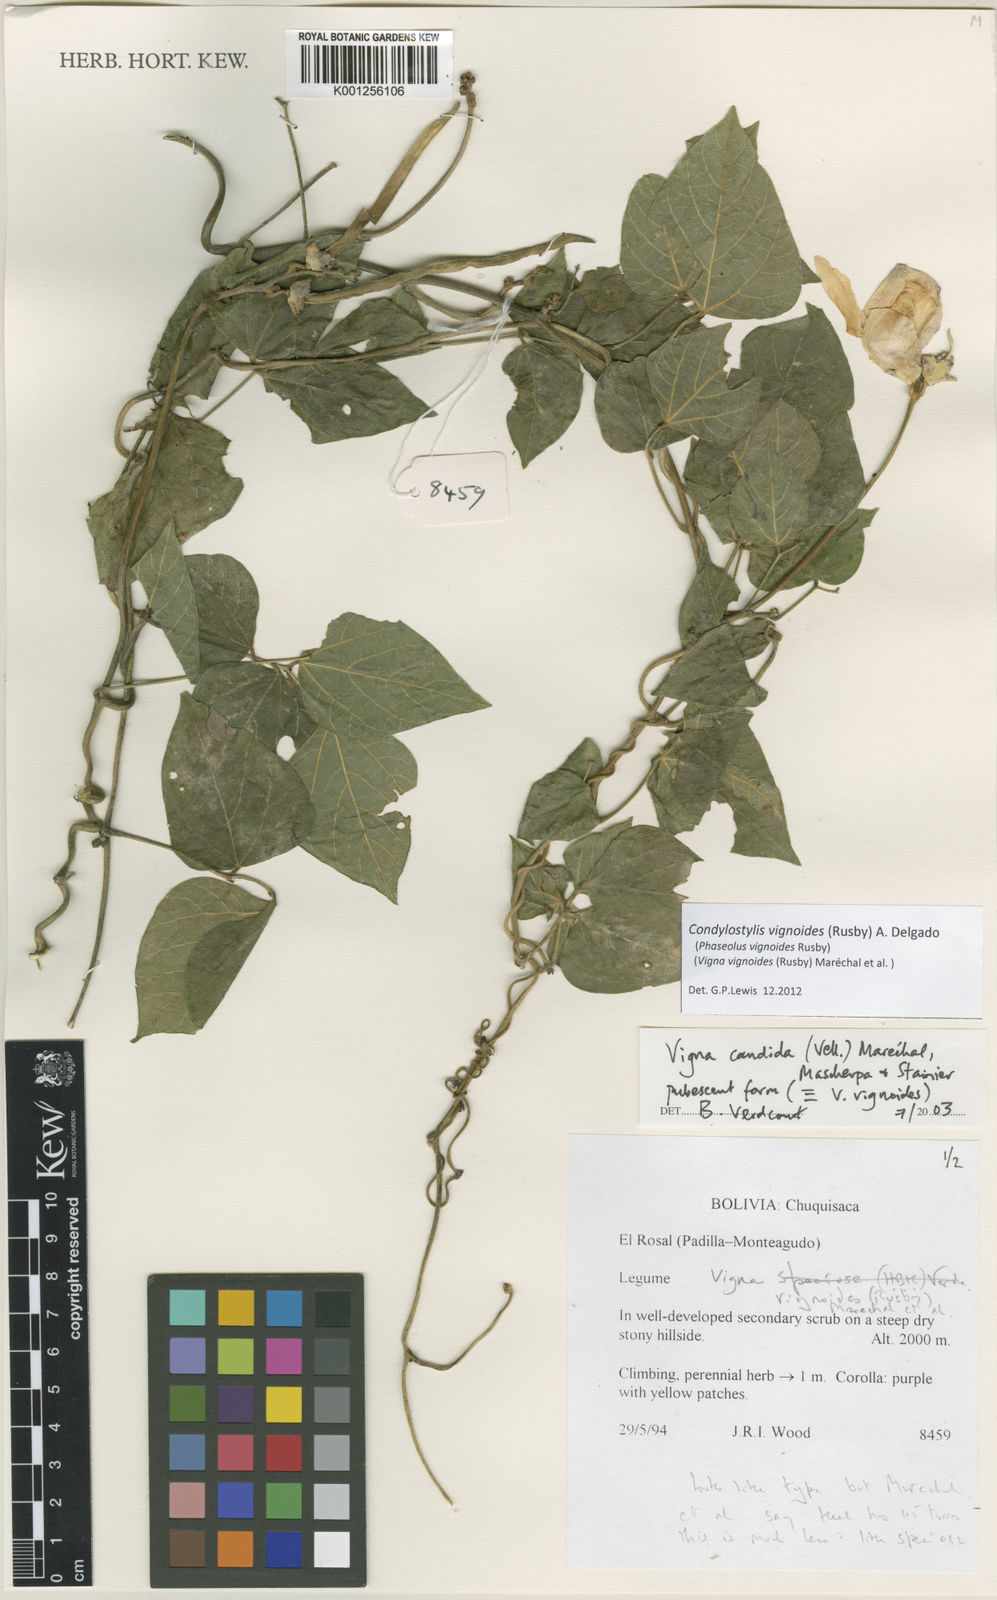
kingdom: Plantae
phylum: Tracheophyta
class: Magnoliopsida
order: Fabales
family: Fabaceae
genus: Condylostylis
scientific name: Condylostylis vignoides
